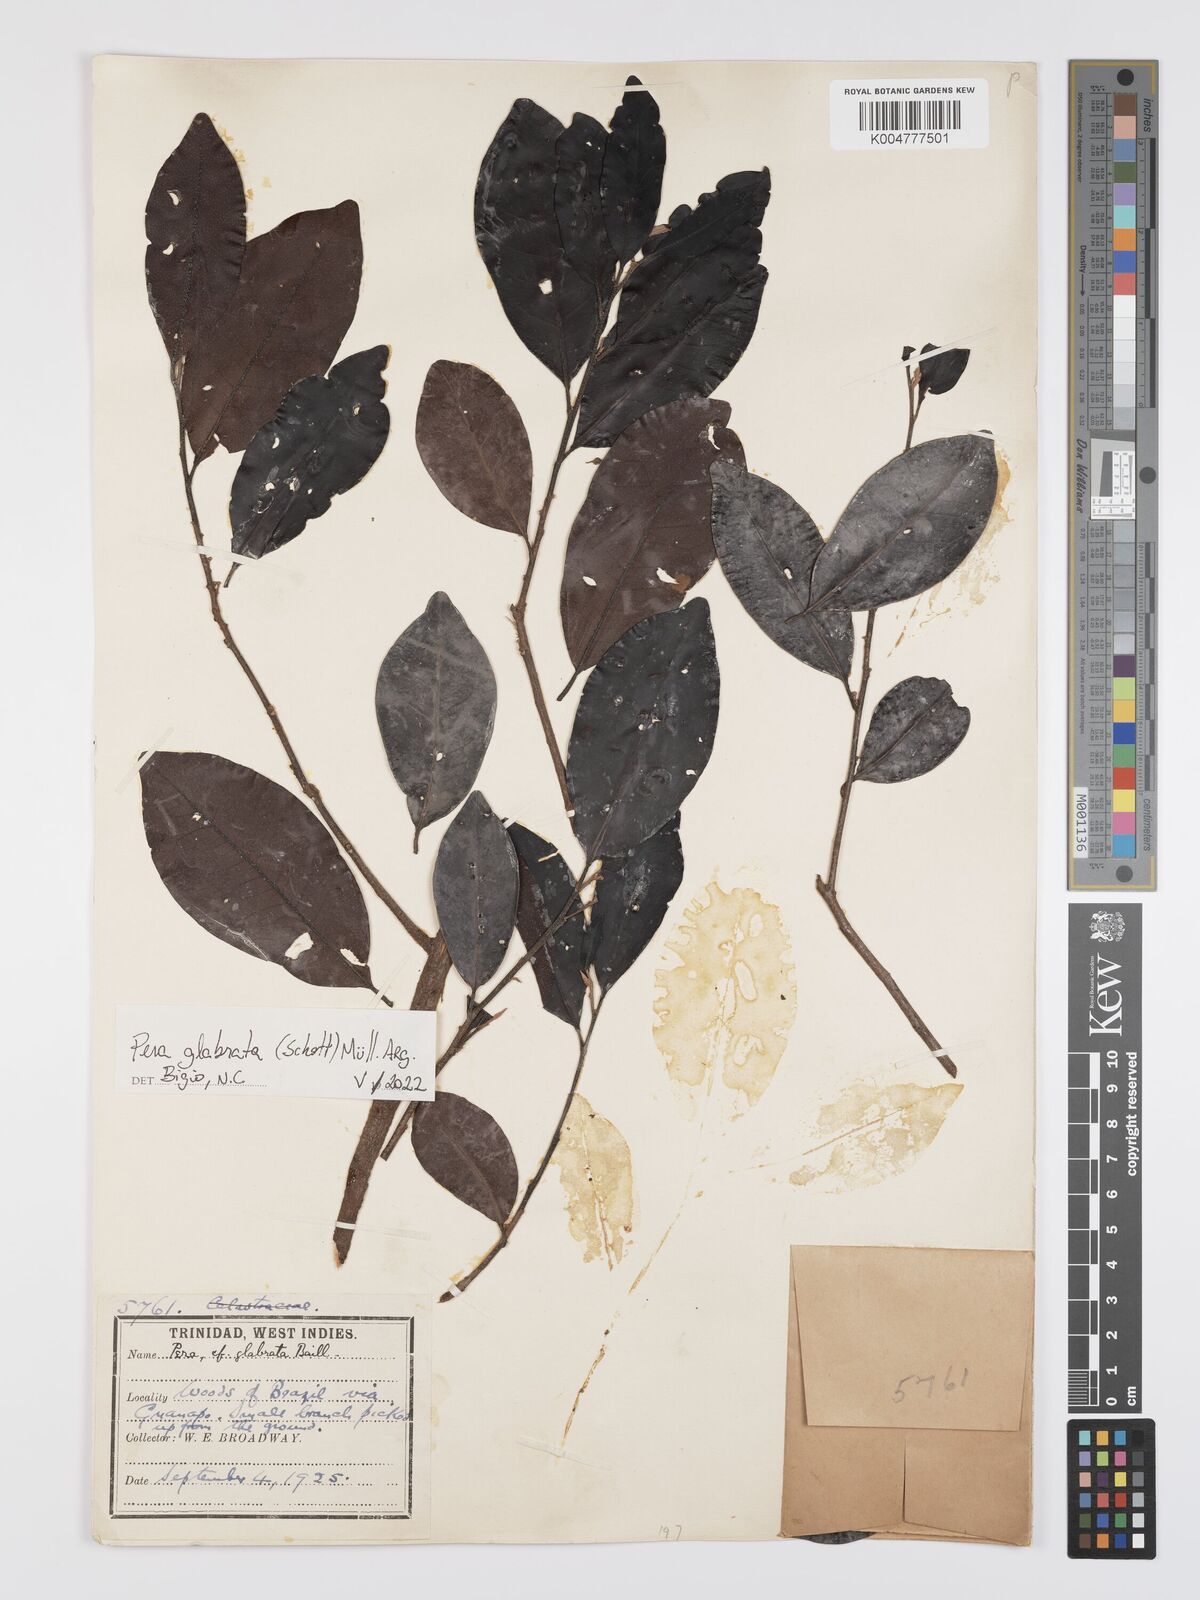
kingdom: Plantae
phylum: Tracheophyta
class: Magnoliopsida
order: Malpighiales
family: Peraceae
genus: Pera
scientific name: Pera glabrata
